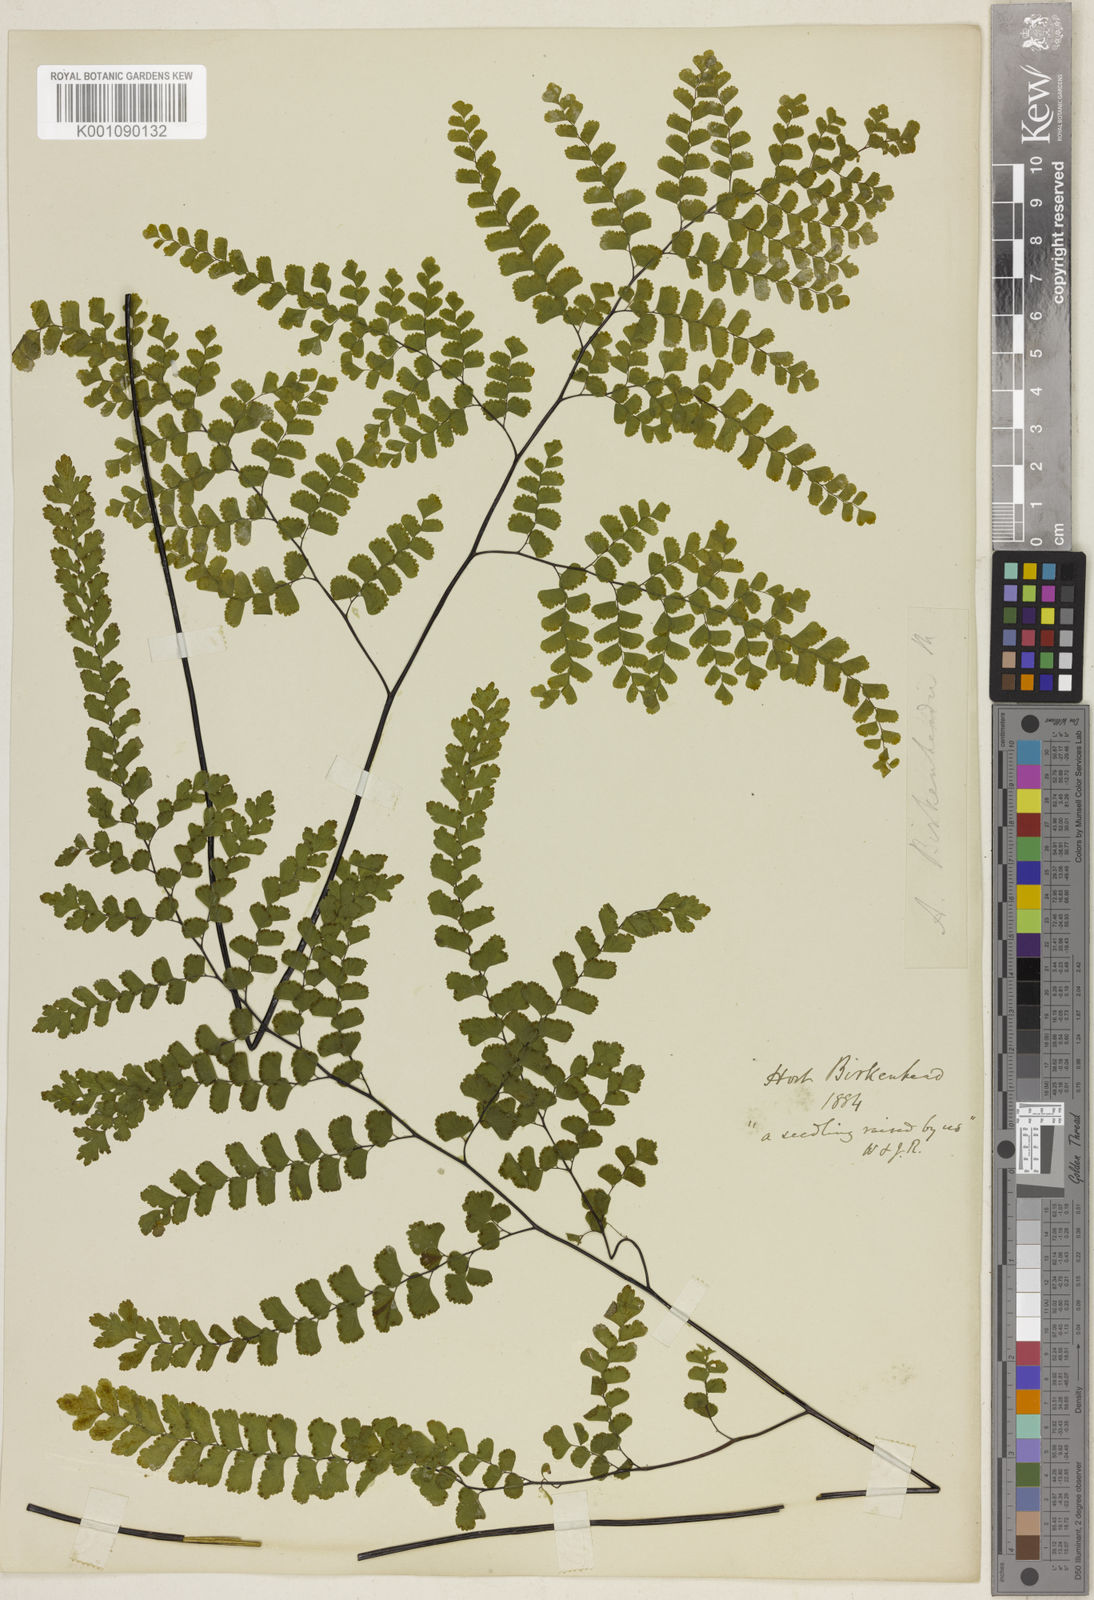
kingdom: Plantae
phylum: Tracheophyta
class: Polypodiopsida
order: Polypodiales
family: Pteridaceae
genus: Adiantum
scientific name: Adiantum concinnum
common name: Brittle maidenhair fern
